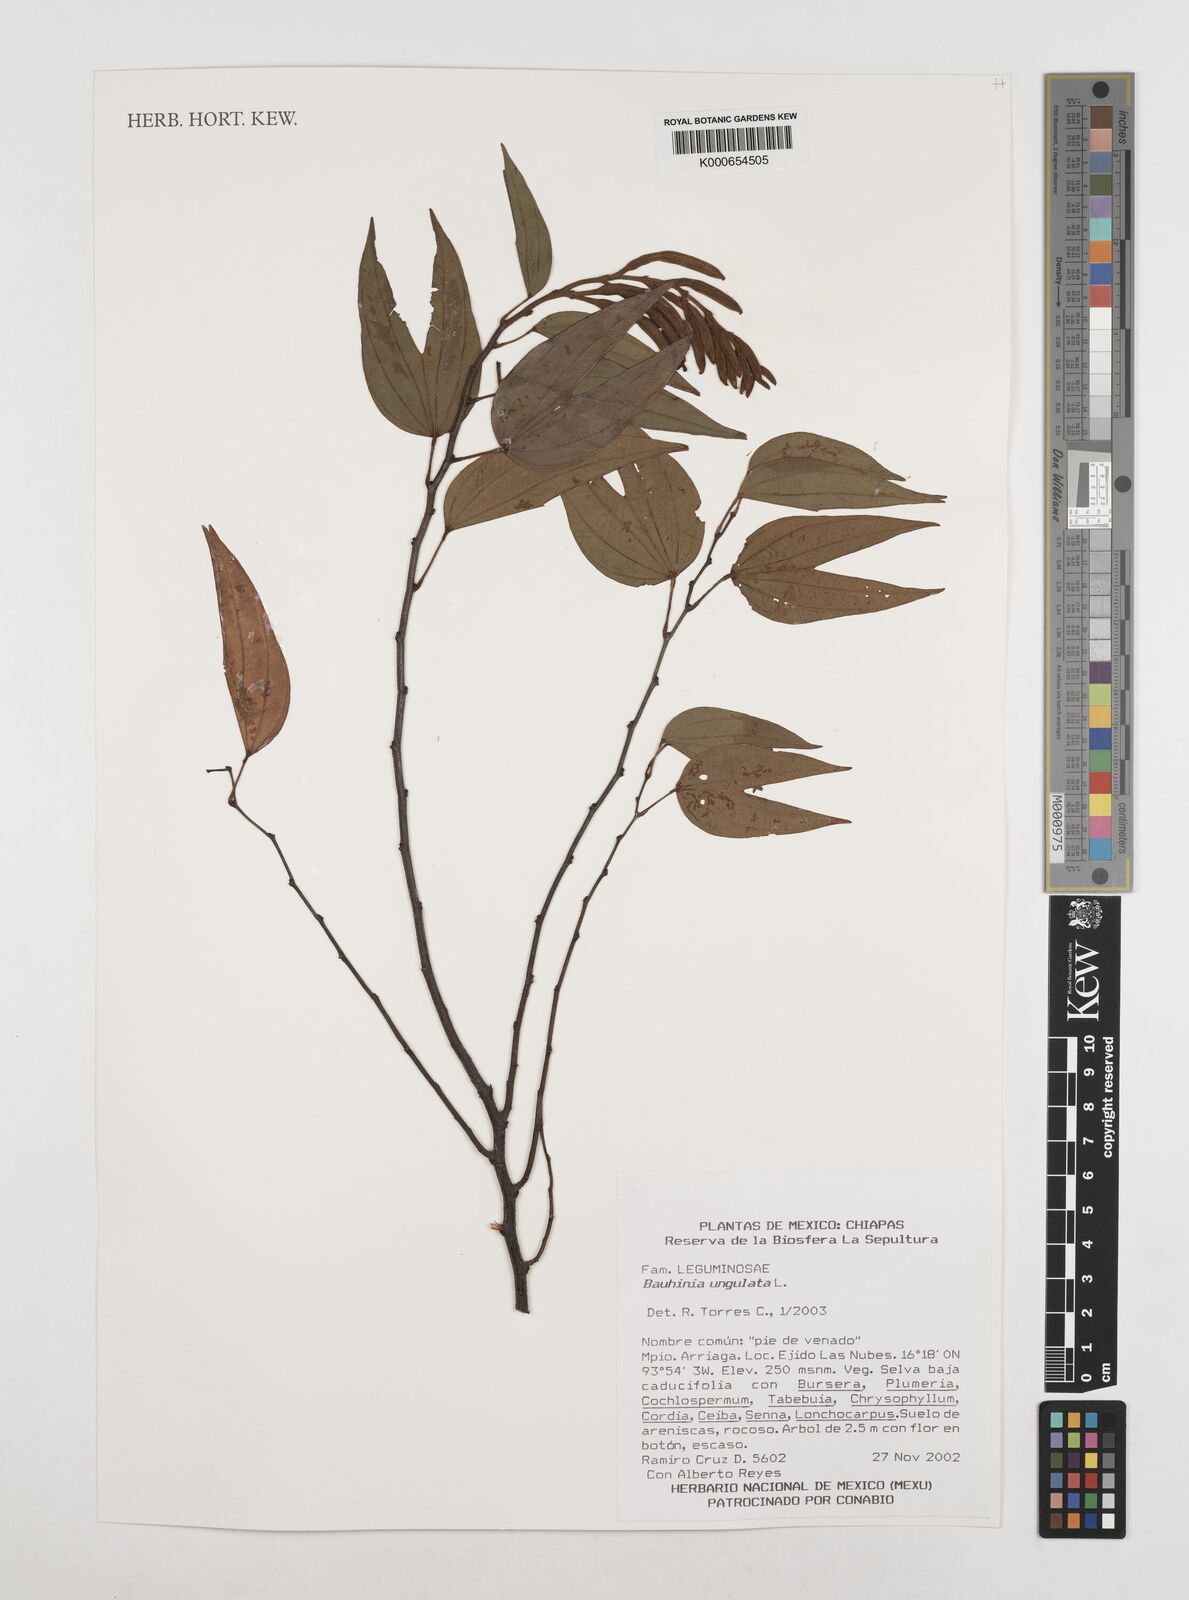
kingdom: Plantae
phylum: Tracheophyta
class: Magnoliopsida
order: Fabales
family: Fabaceae
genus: Bauhinia
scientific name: Bauhinia ungulata
